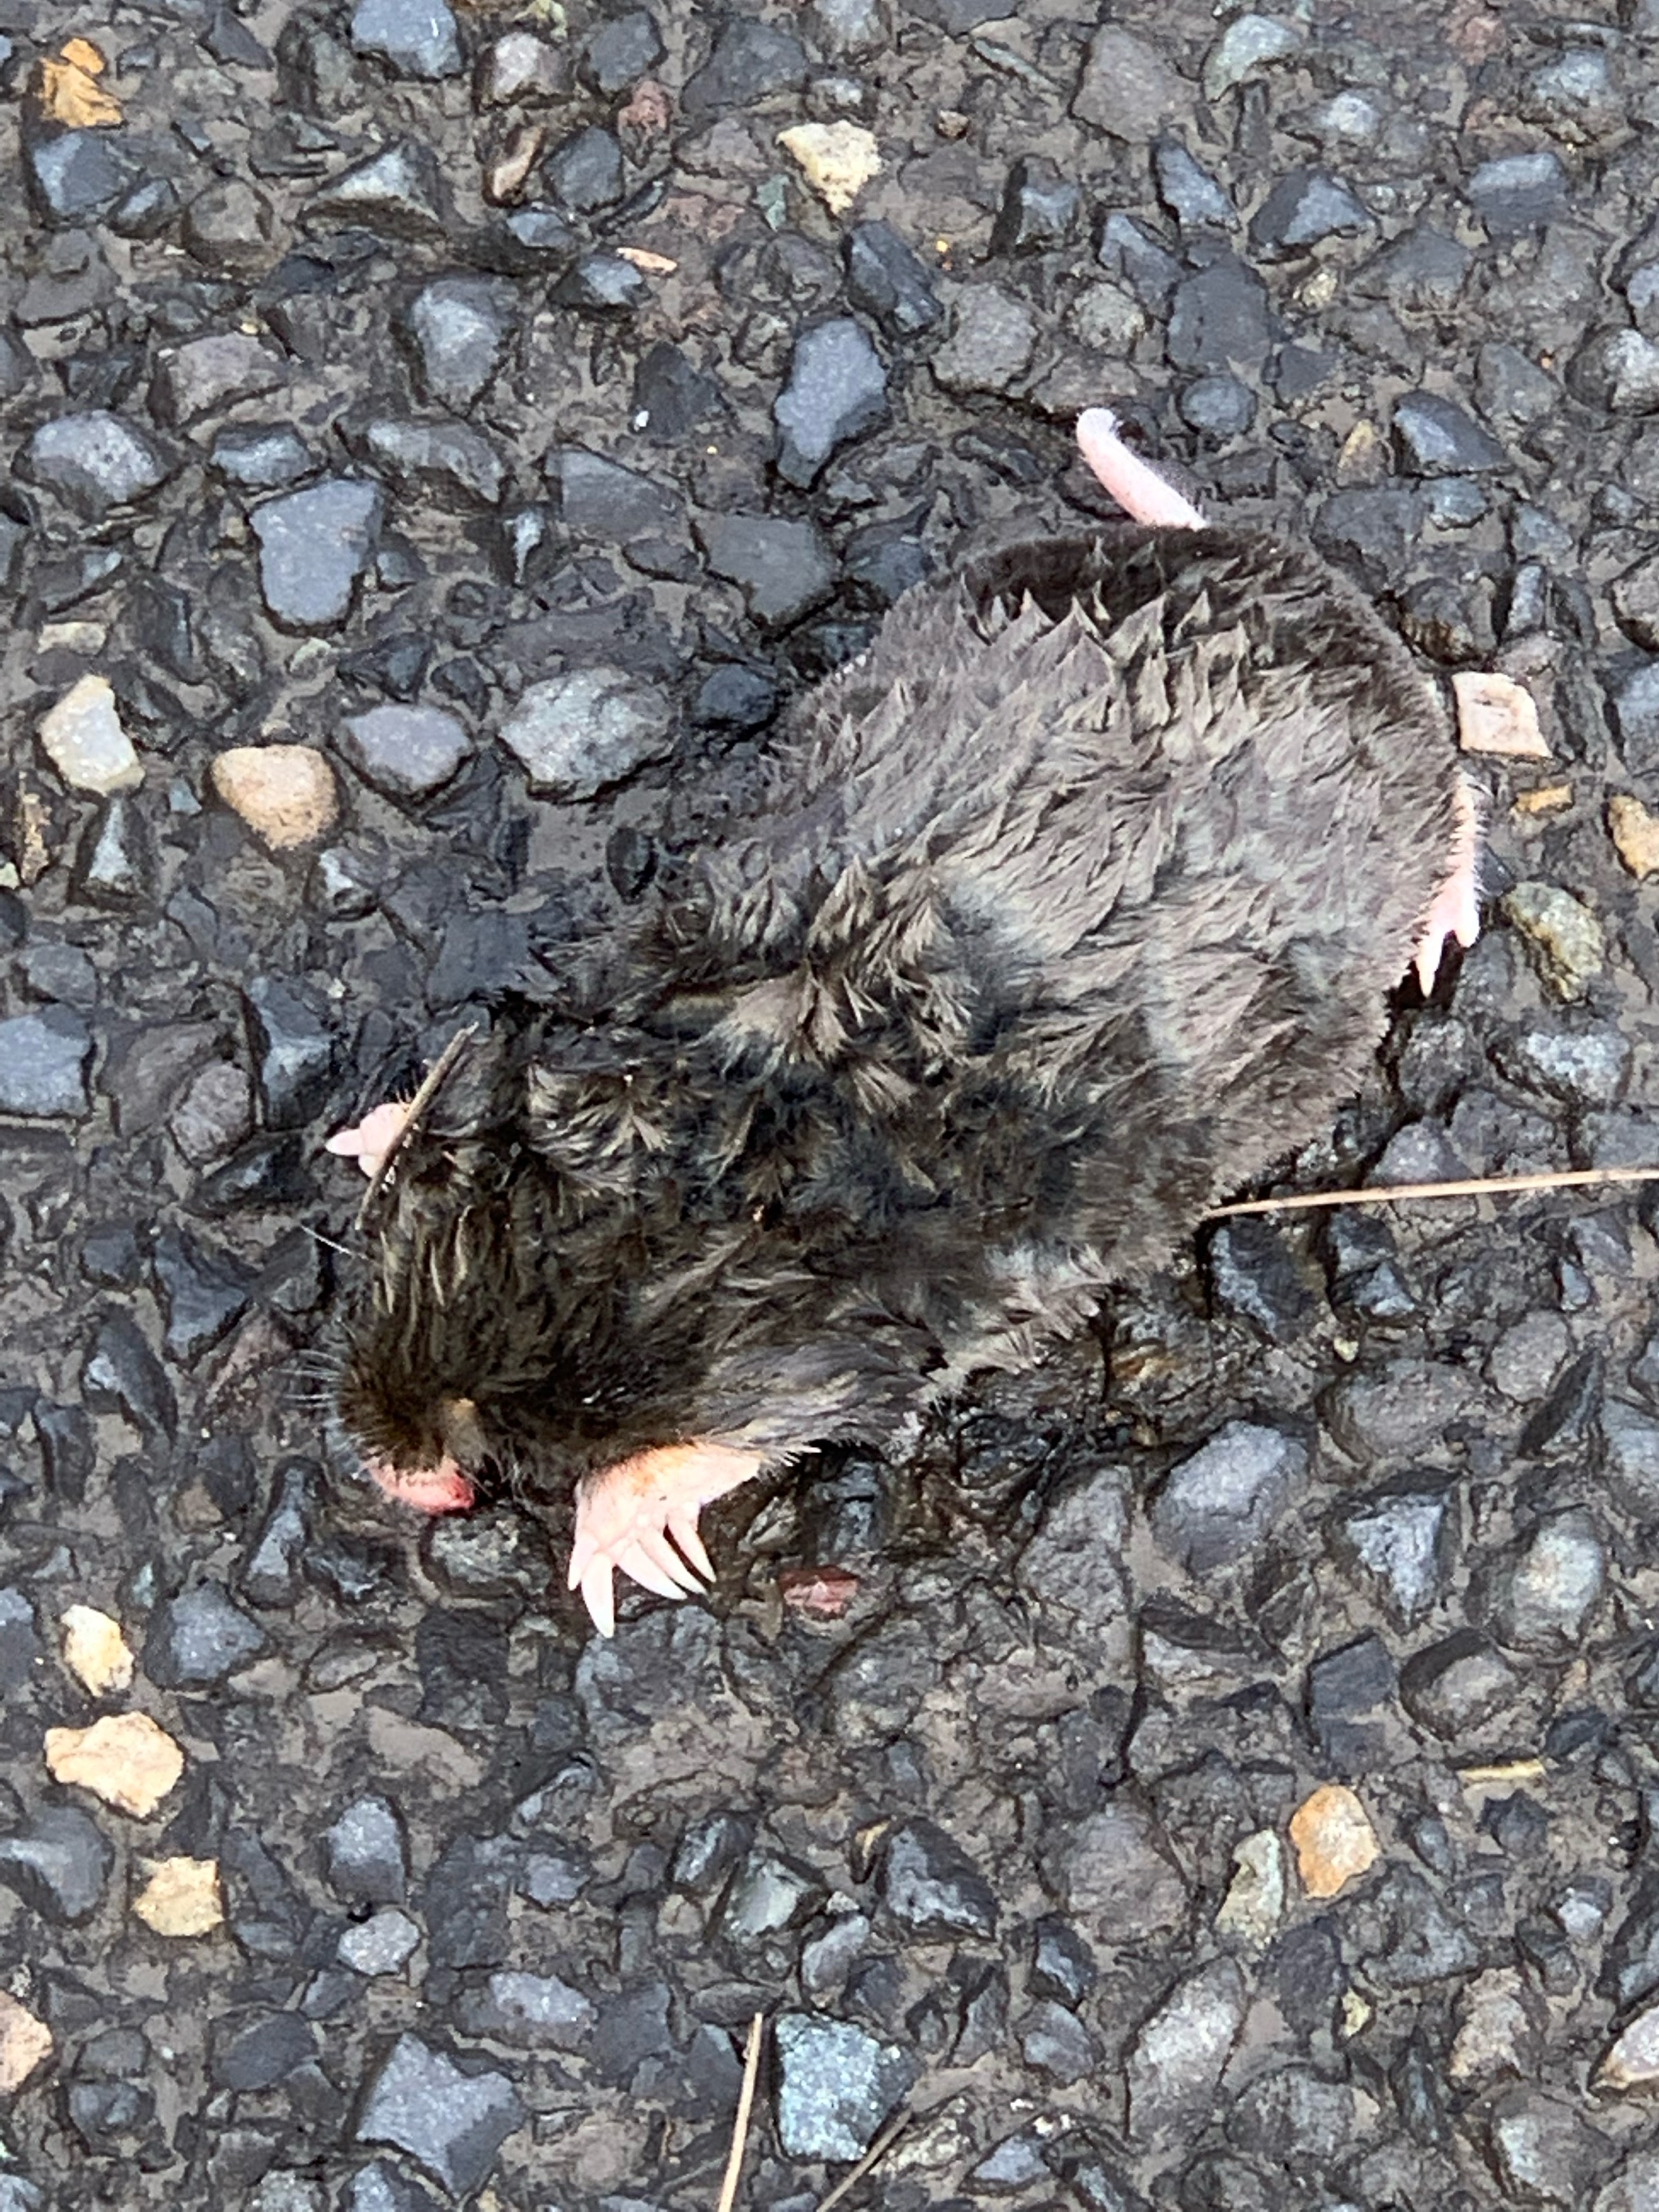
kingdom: Animalia
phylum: Chordata
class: Mammalia
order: Soricomorpha
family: Talpidae
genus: Scapanus
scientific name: Scapanus townsendii
